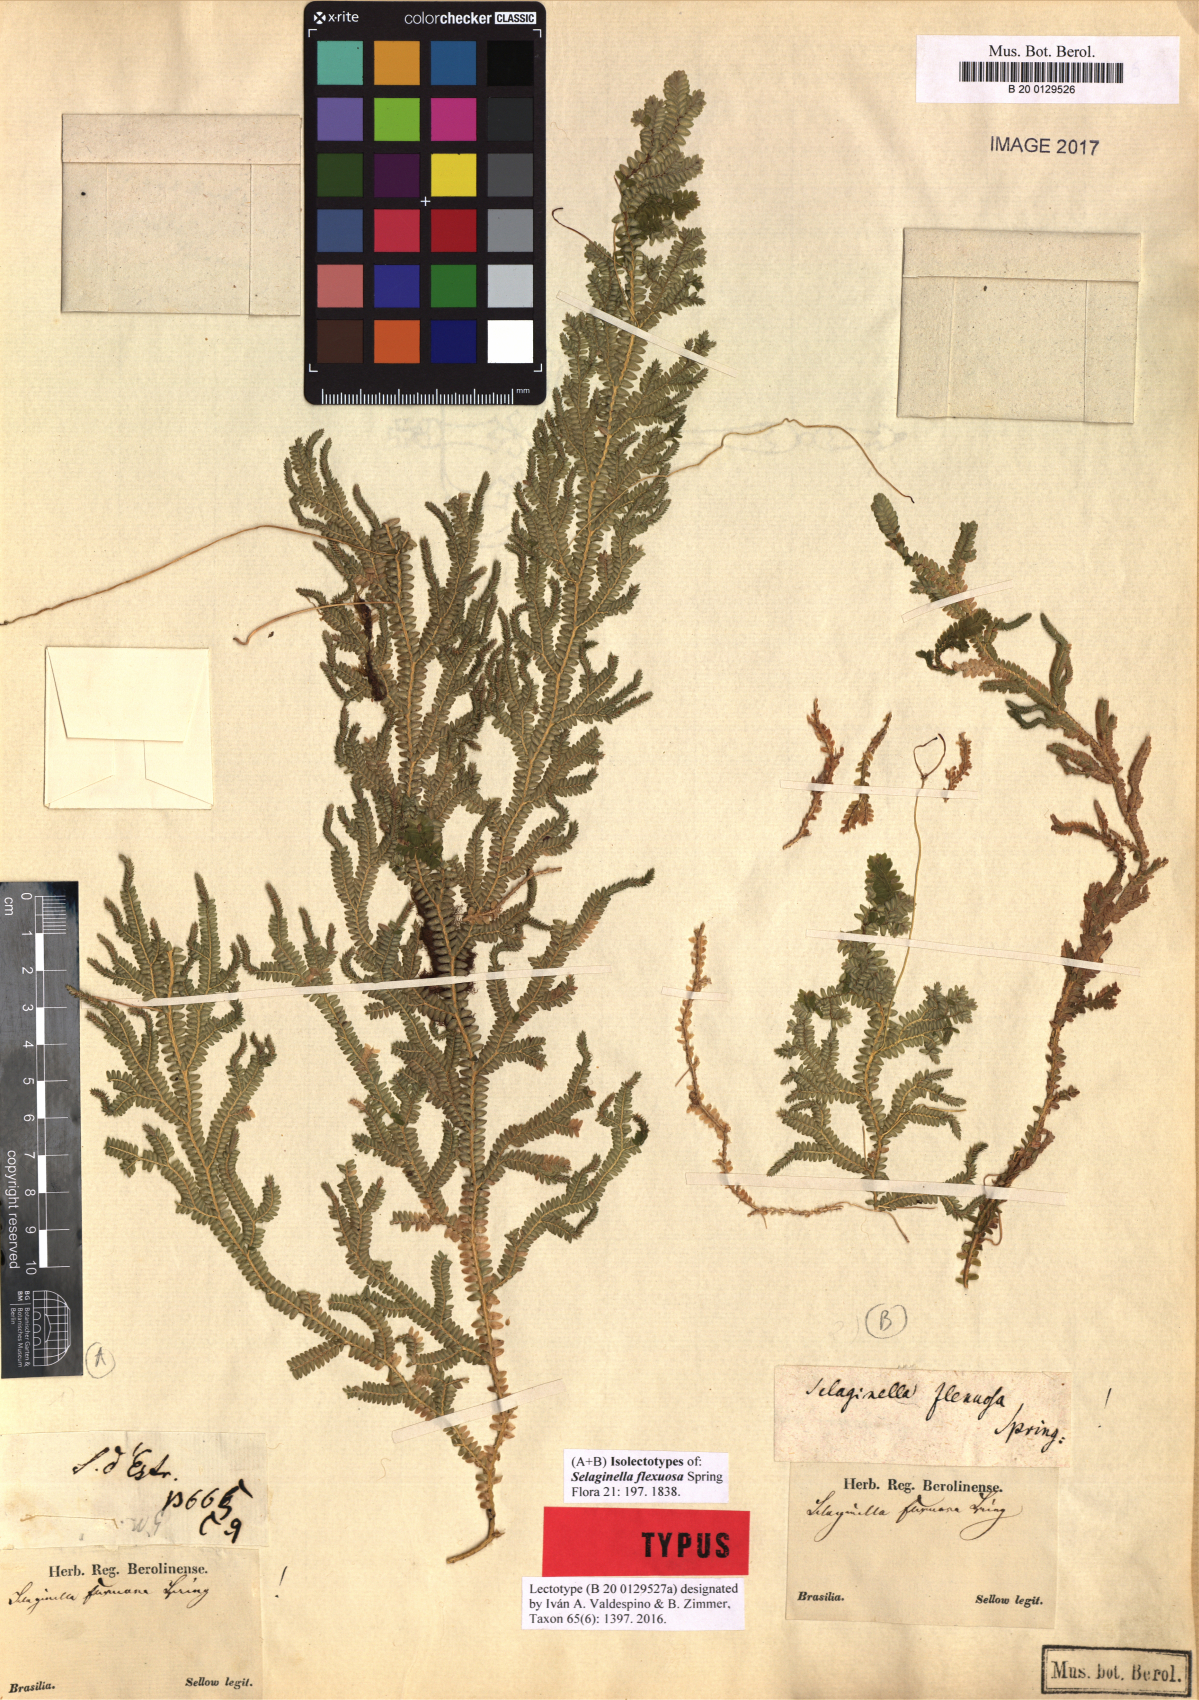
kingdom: Plantae
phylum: Tracheophyta
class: Lycopodiopsida
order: Selaginellales
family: Selaginellaceae
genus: Selaginella
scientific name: Selaginella flexuosa
